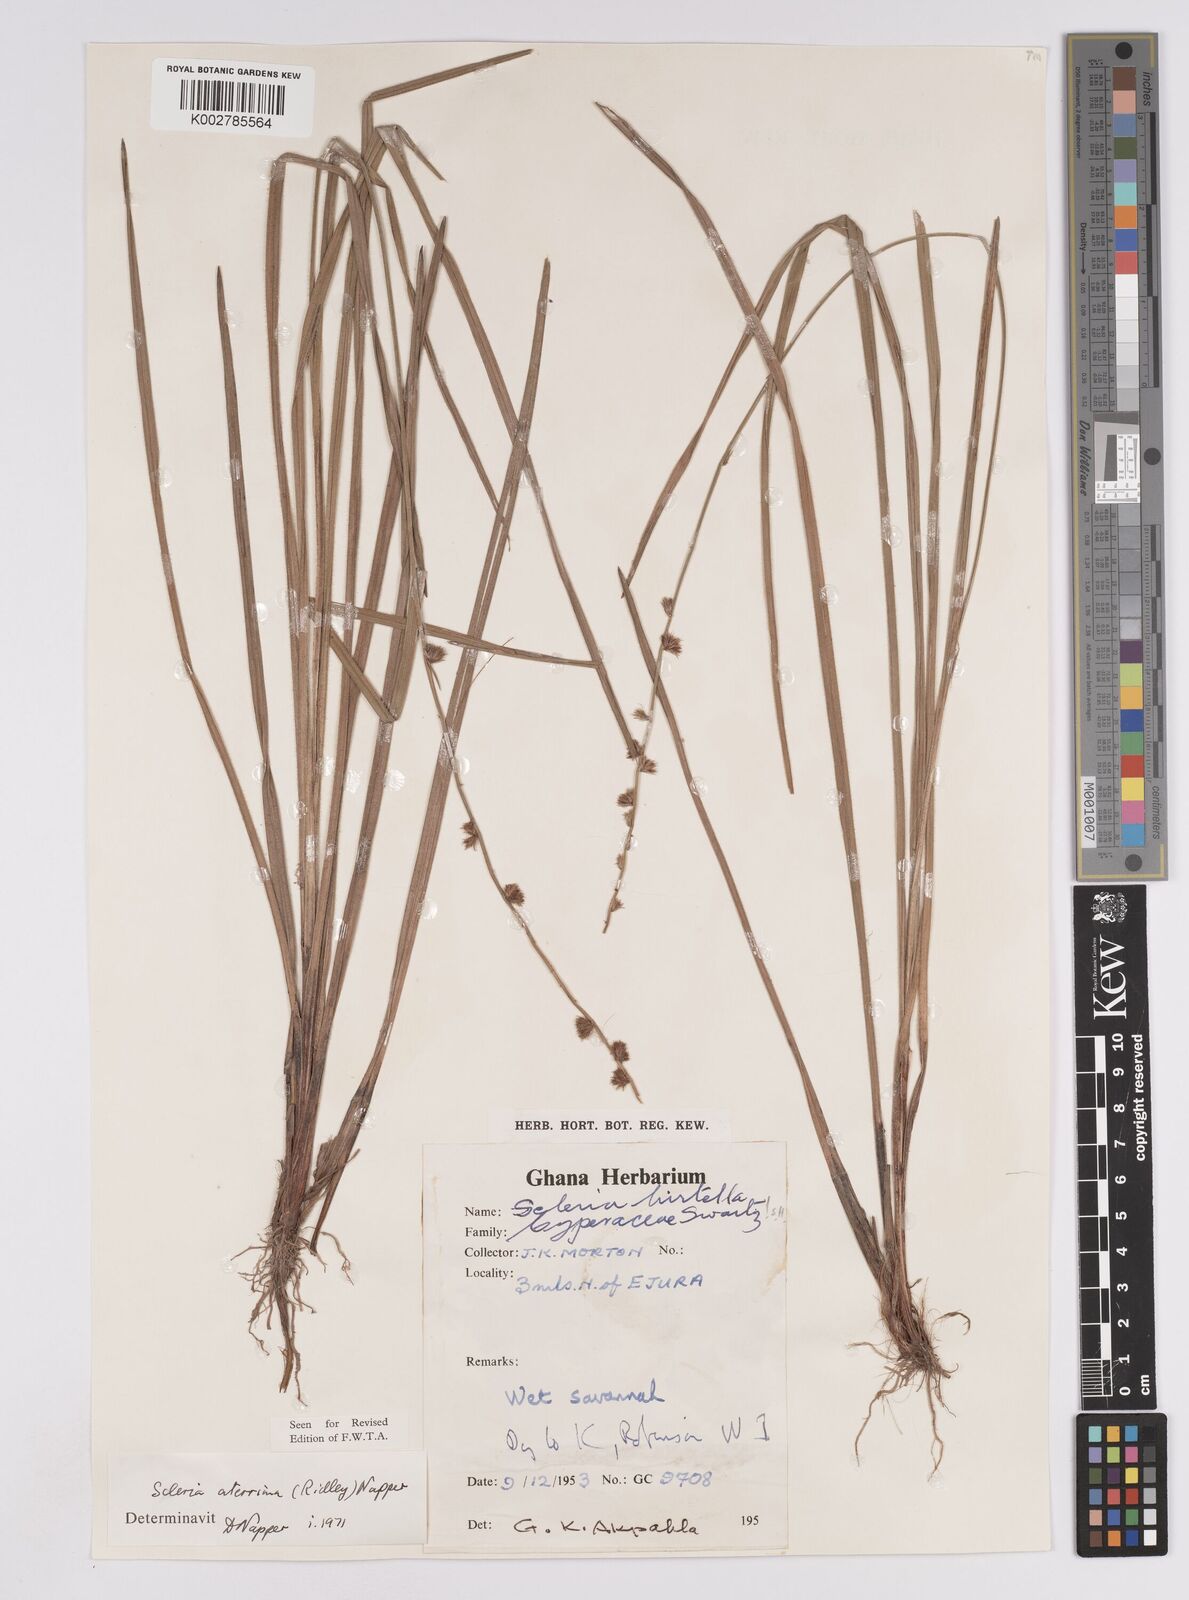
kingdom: Plantae
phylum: Tracheophyta
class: Liliopsida
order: Poales
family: Cyperaceae
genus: Scleria
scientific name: Scleria catophylla
